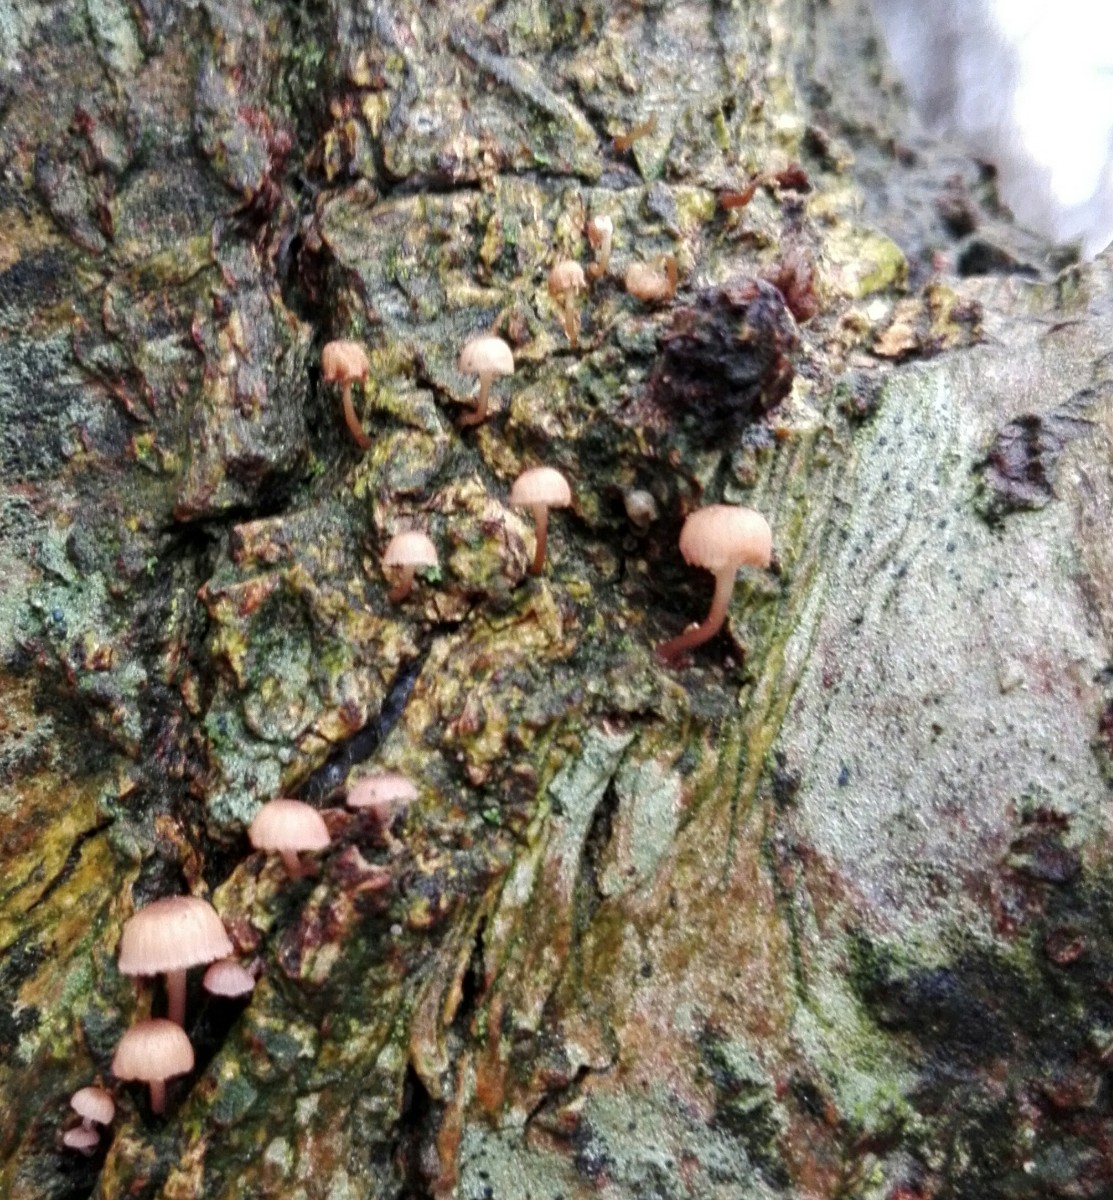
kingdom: Fungi
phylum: Basidiomycota
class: Agaricomycetes
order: Agaricales
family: Mycenaceae
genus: Mycena
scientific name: Mycena meliigena
